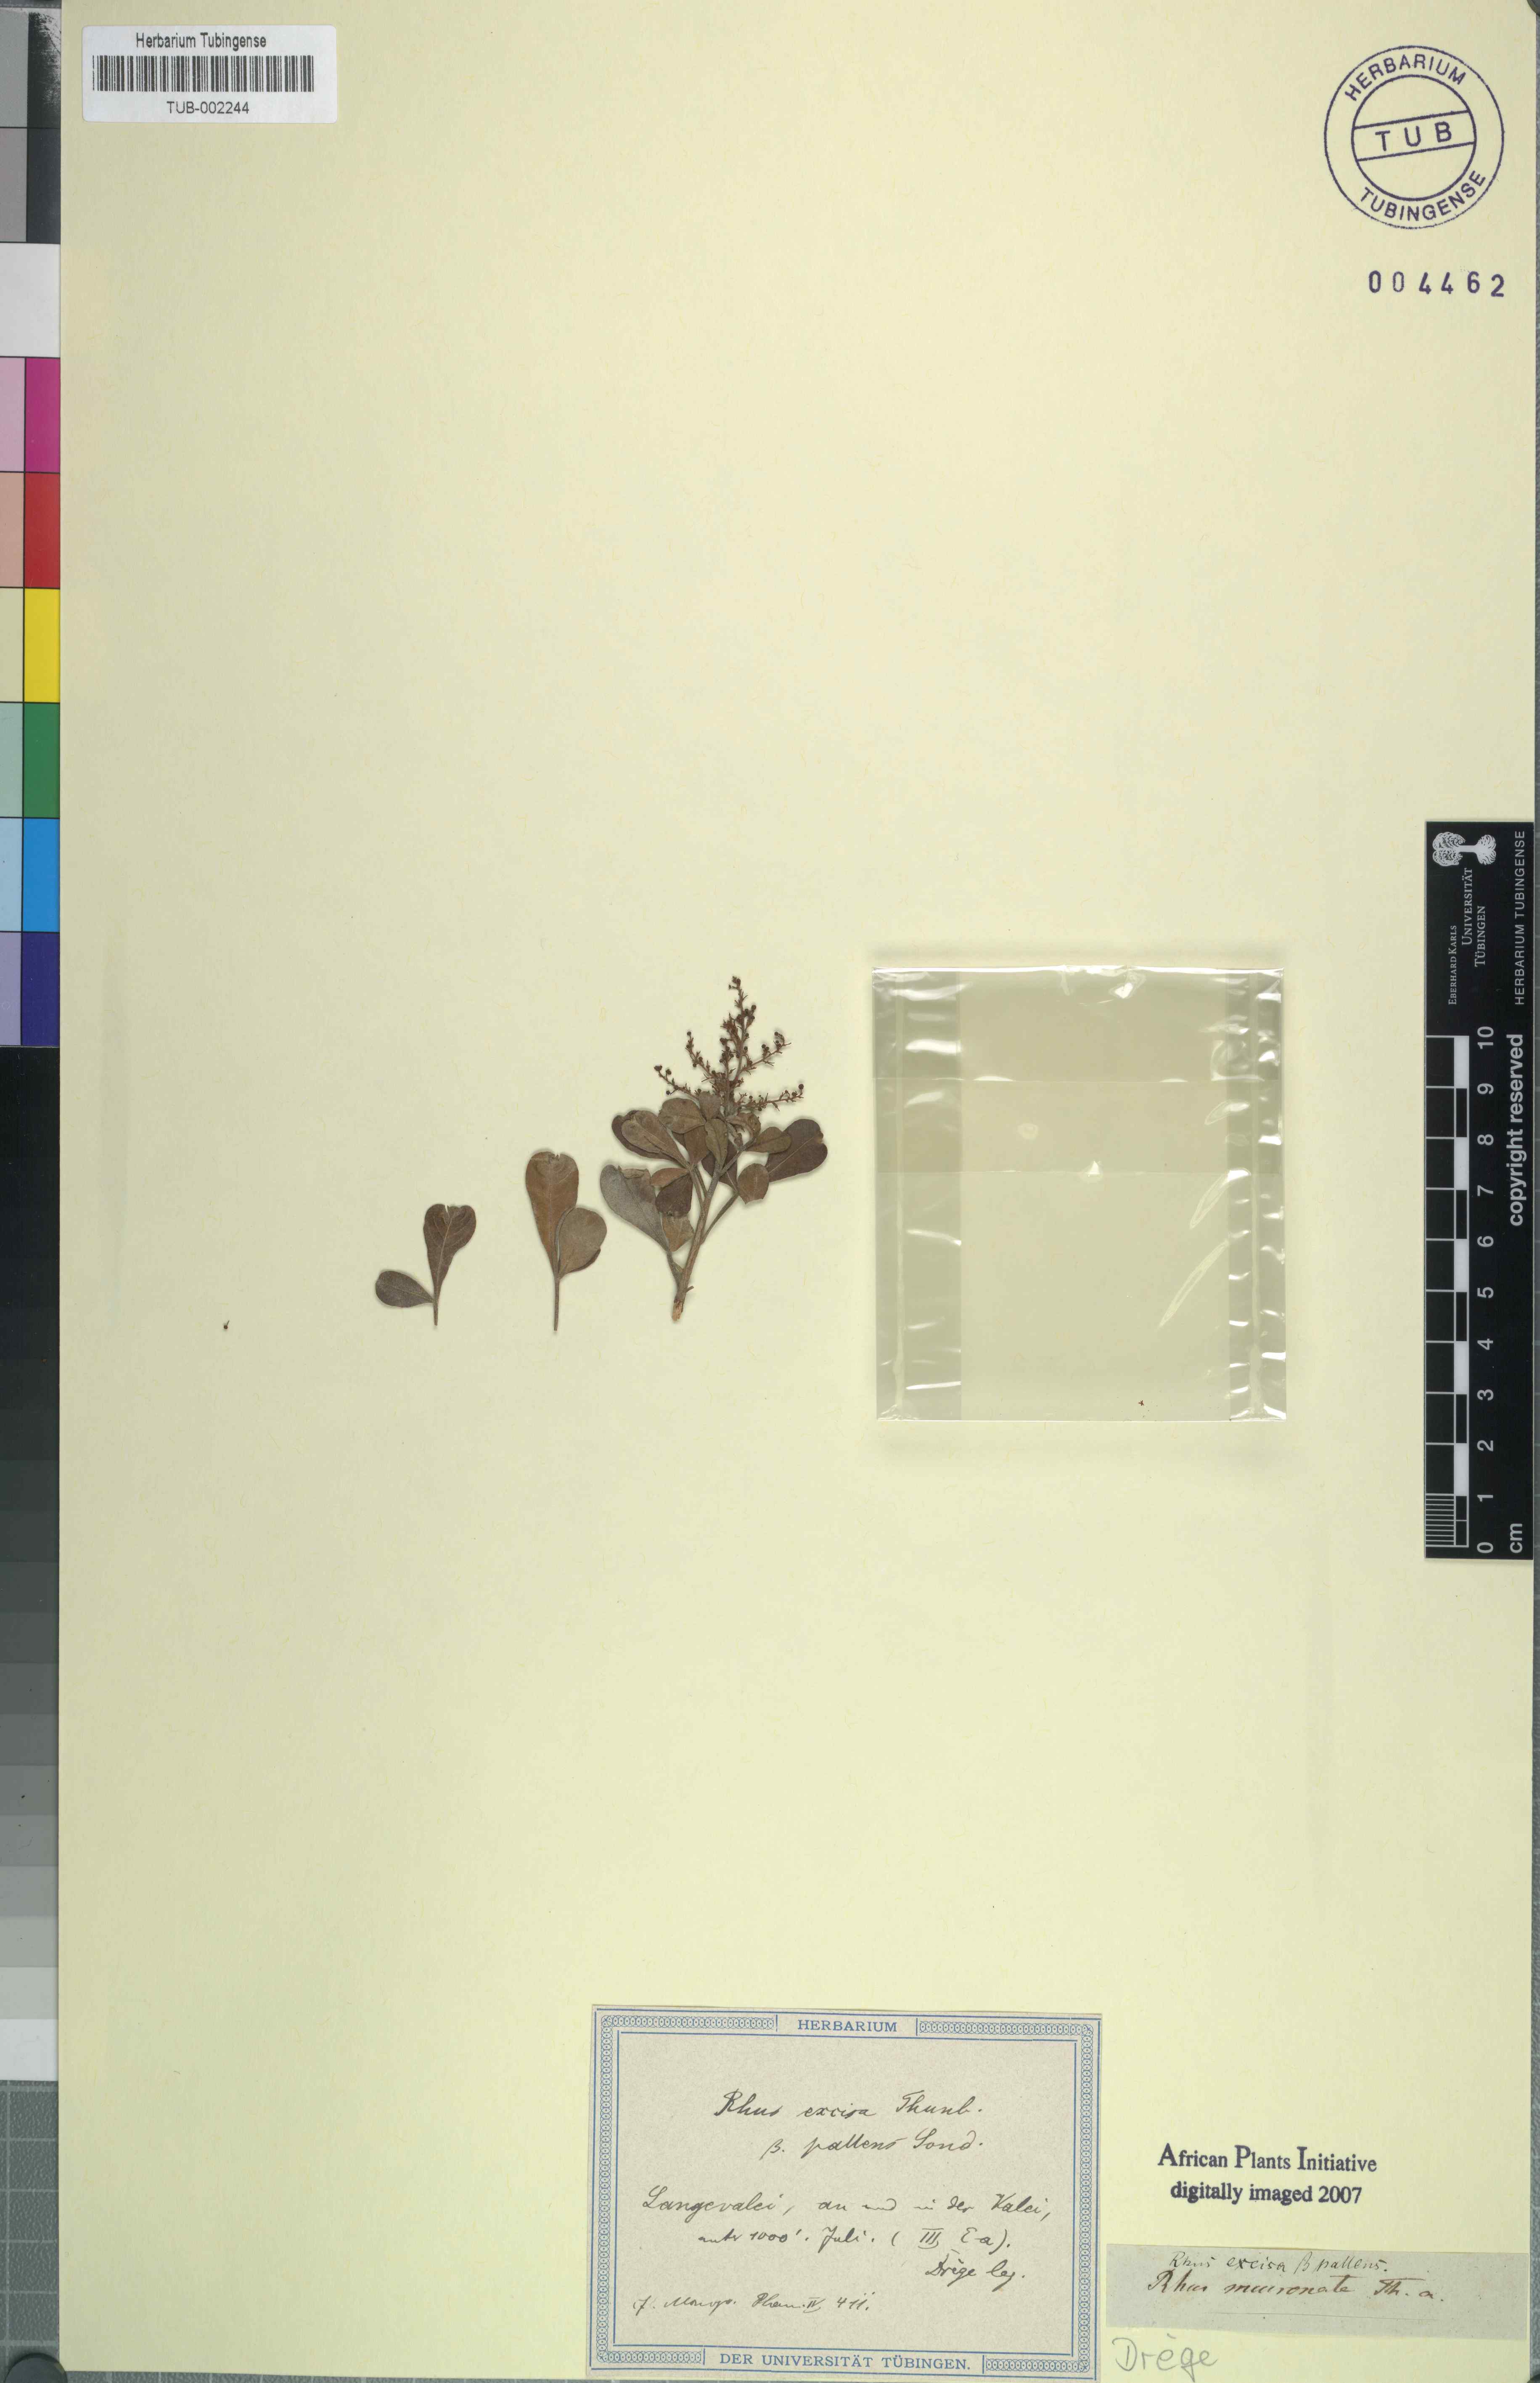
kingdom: Plantae
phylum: Tracheophyta
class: Magnoliopsida
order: Sapindales
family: Anacardiaceae
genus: Toxicodendron
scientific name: Toxicodendron radicans
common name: Poison ivy
